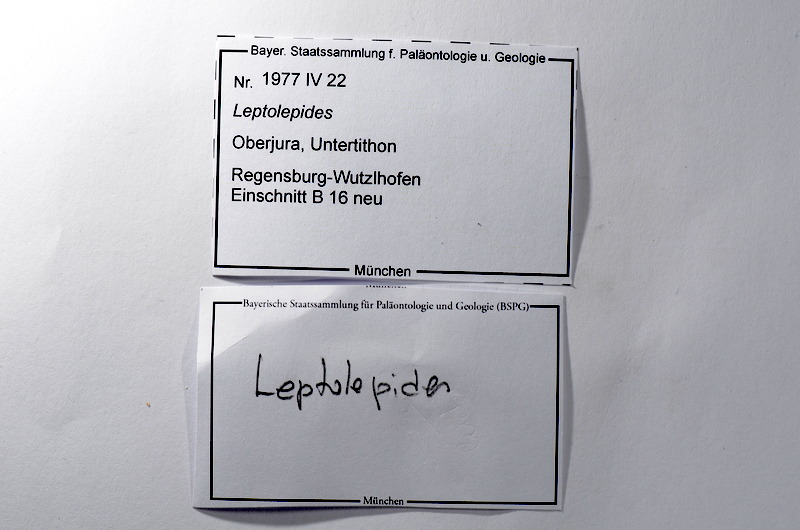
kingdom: Animalia
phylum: Chordata
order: Salmoniformes
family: Orthogonikleithridae
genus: Leptolepides
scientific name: Leptolepides
